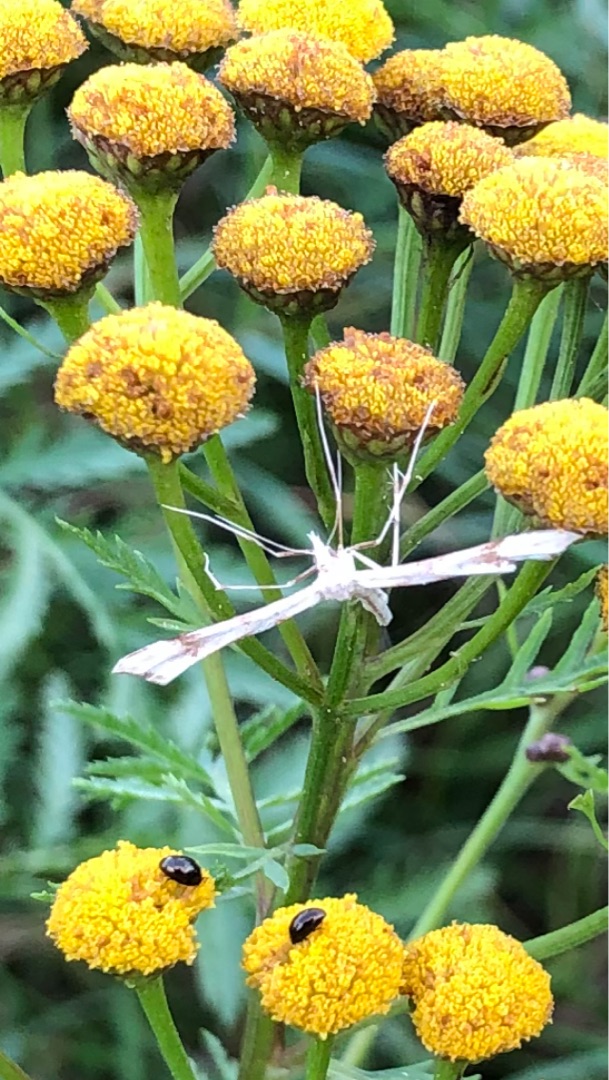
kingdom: Plantae
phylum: Tracheophyta
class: Magnoliopsida
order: Asterales
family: Asteraceae
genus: Tanacetum
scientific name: Tanacetum vulgare
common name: Rejnfan
